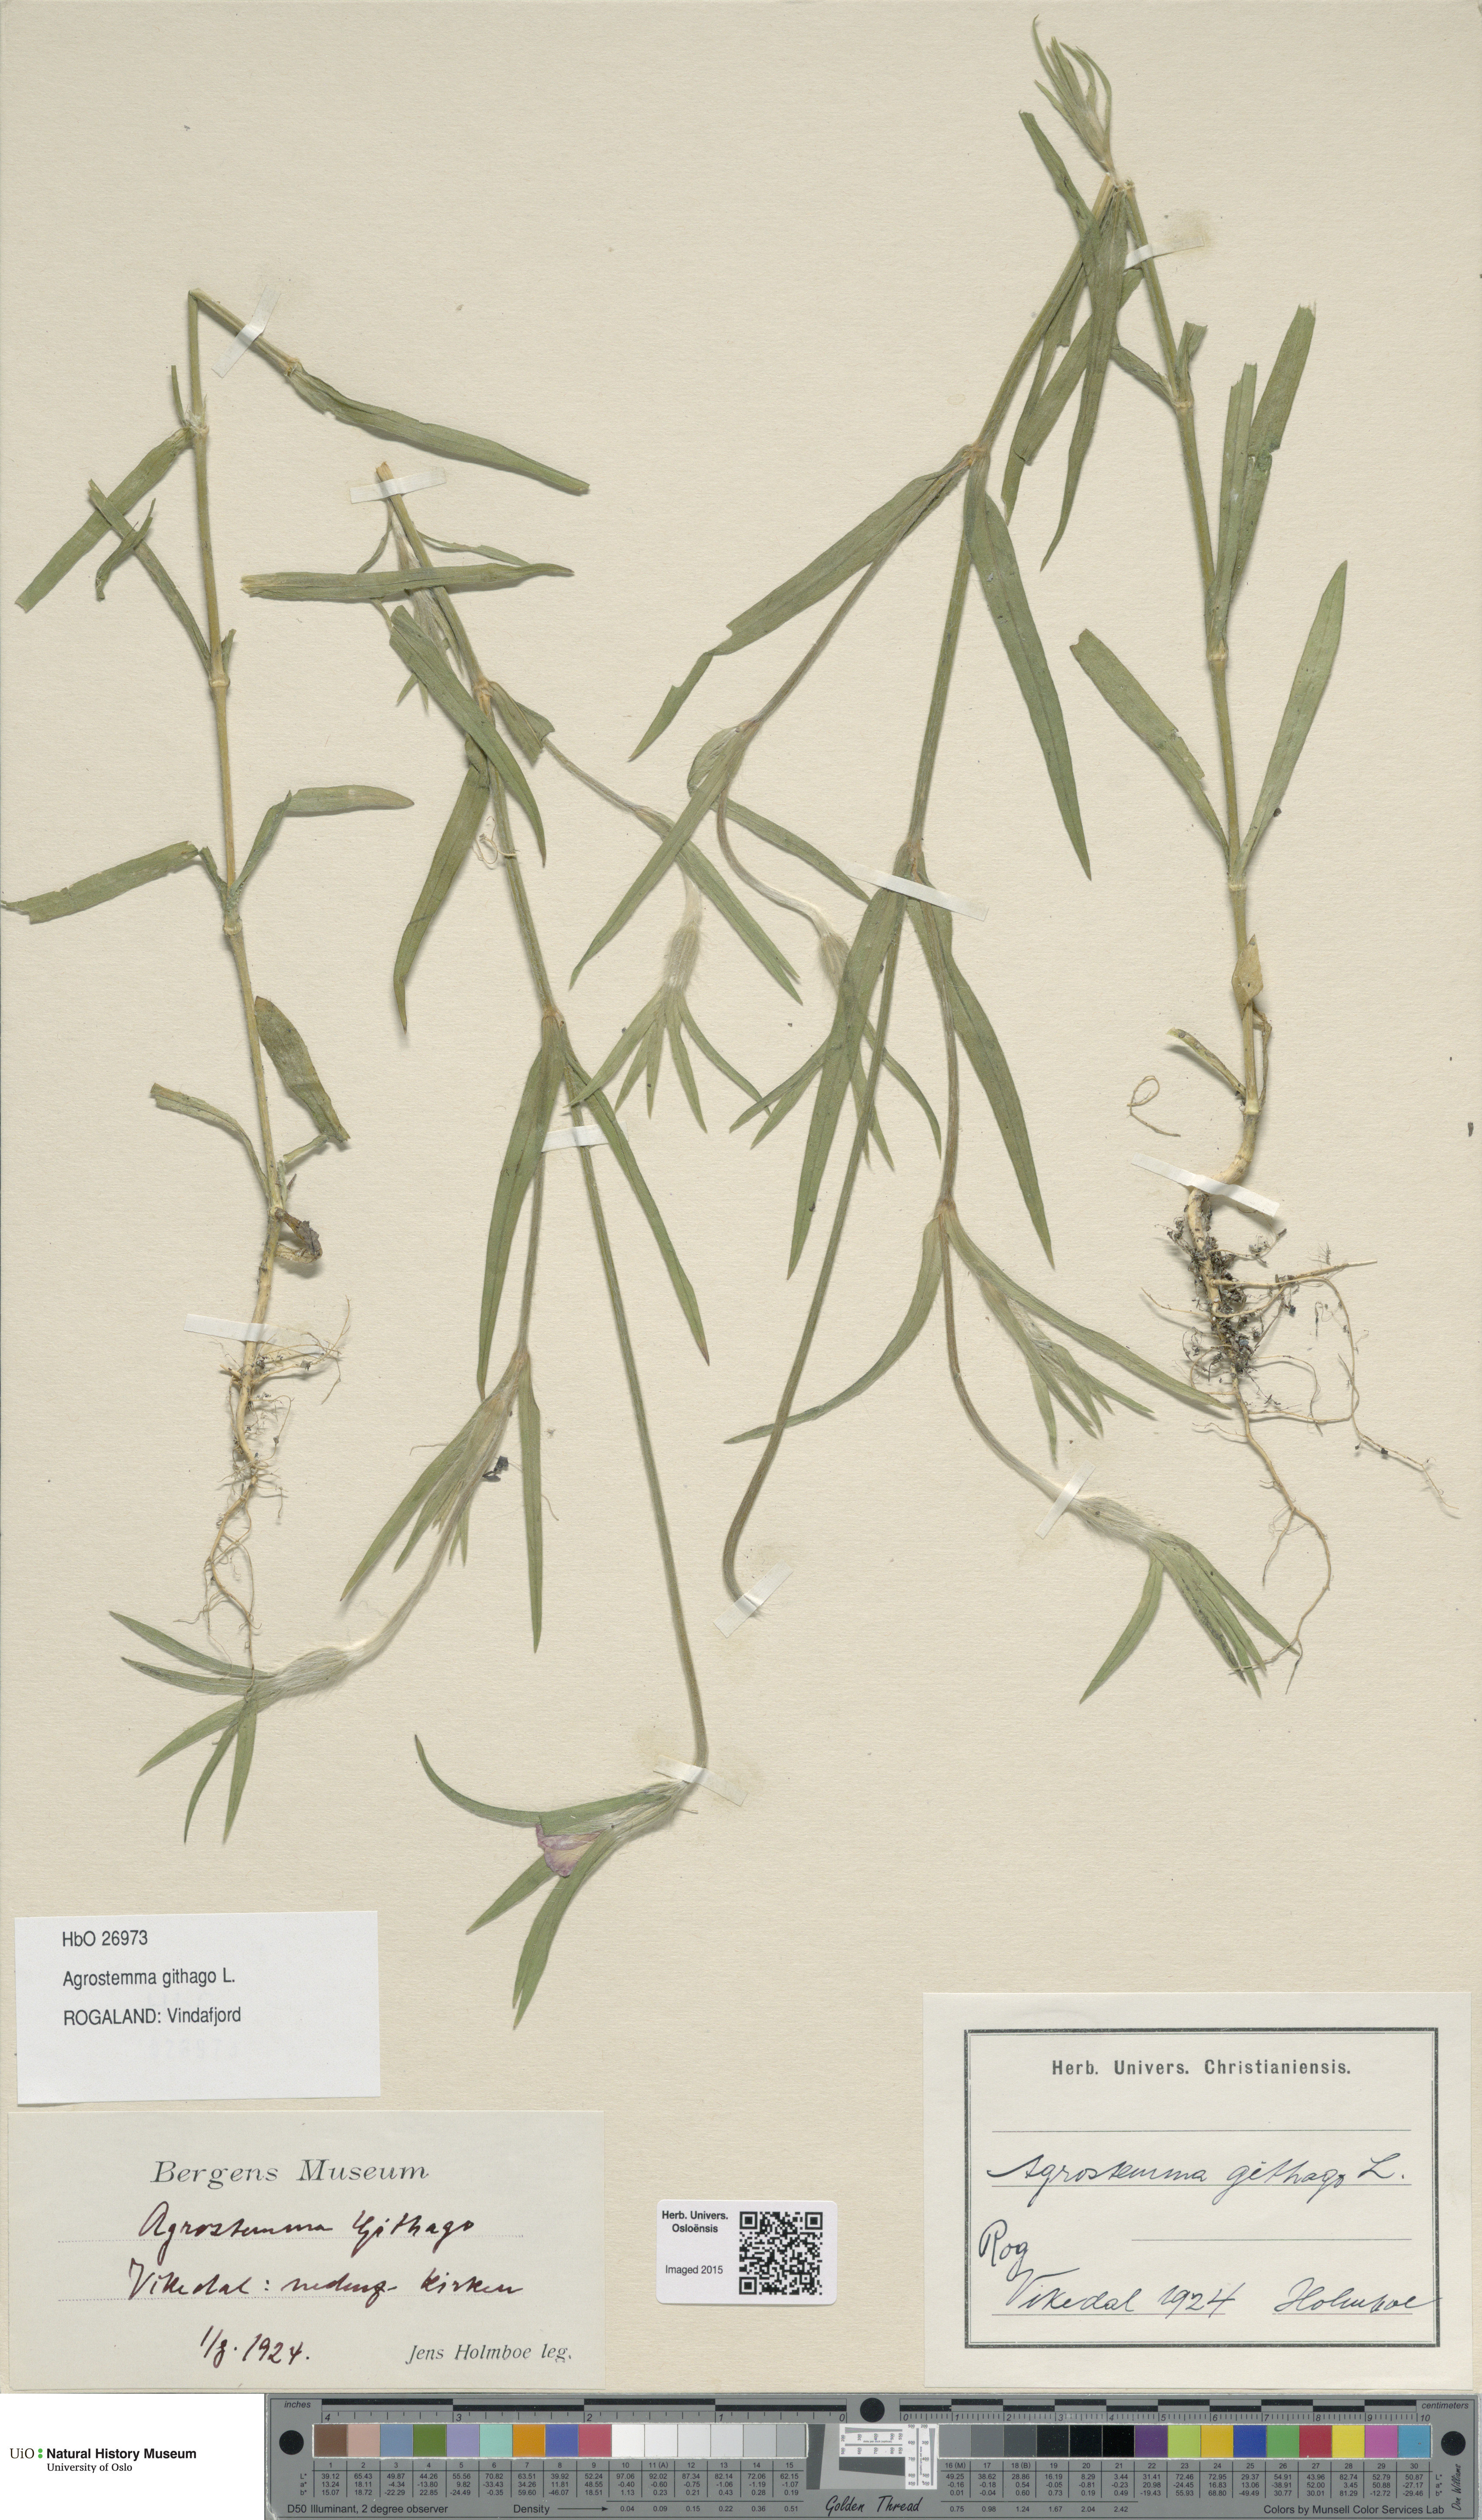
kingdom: Plantae
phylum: Tracheophyta
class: Magnoliopsida
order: Caryophyllales
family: Caryophyllaceae
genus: Agrostemma
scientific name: Agrostemma githago
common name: Common corncockle
